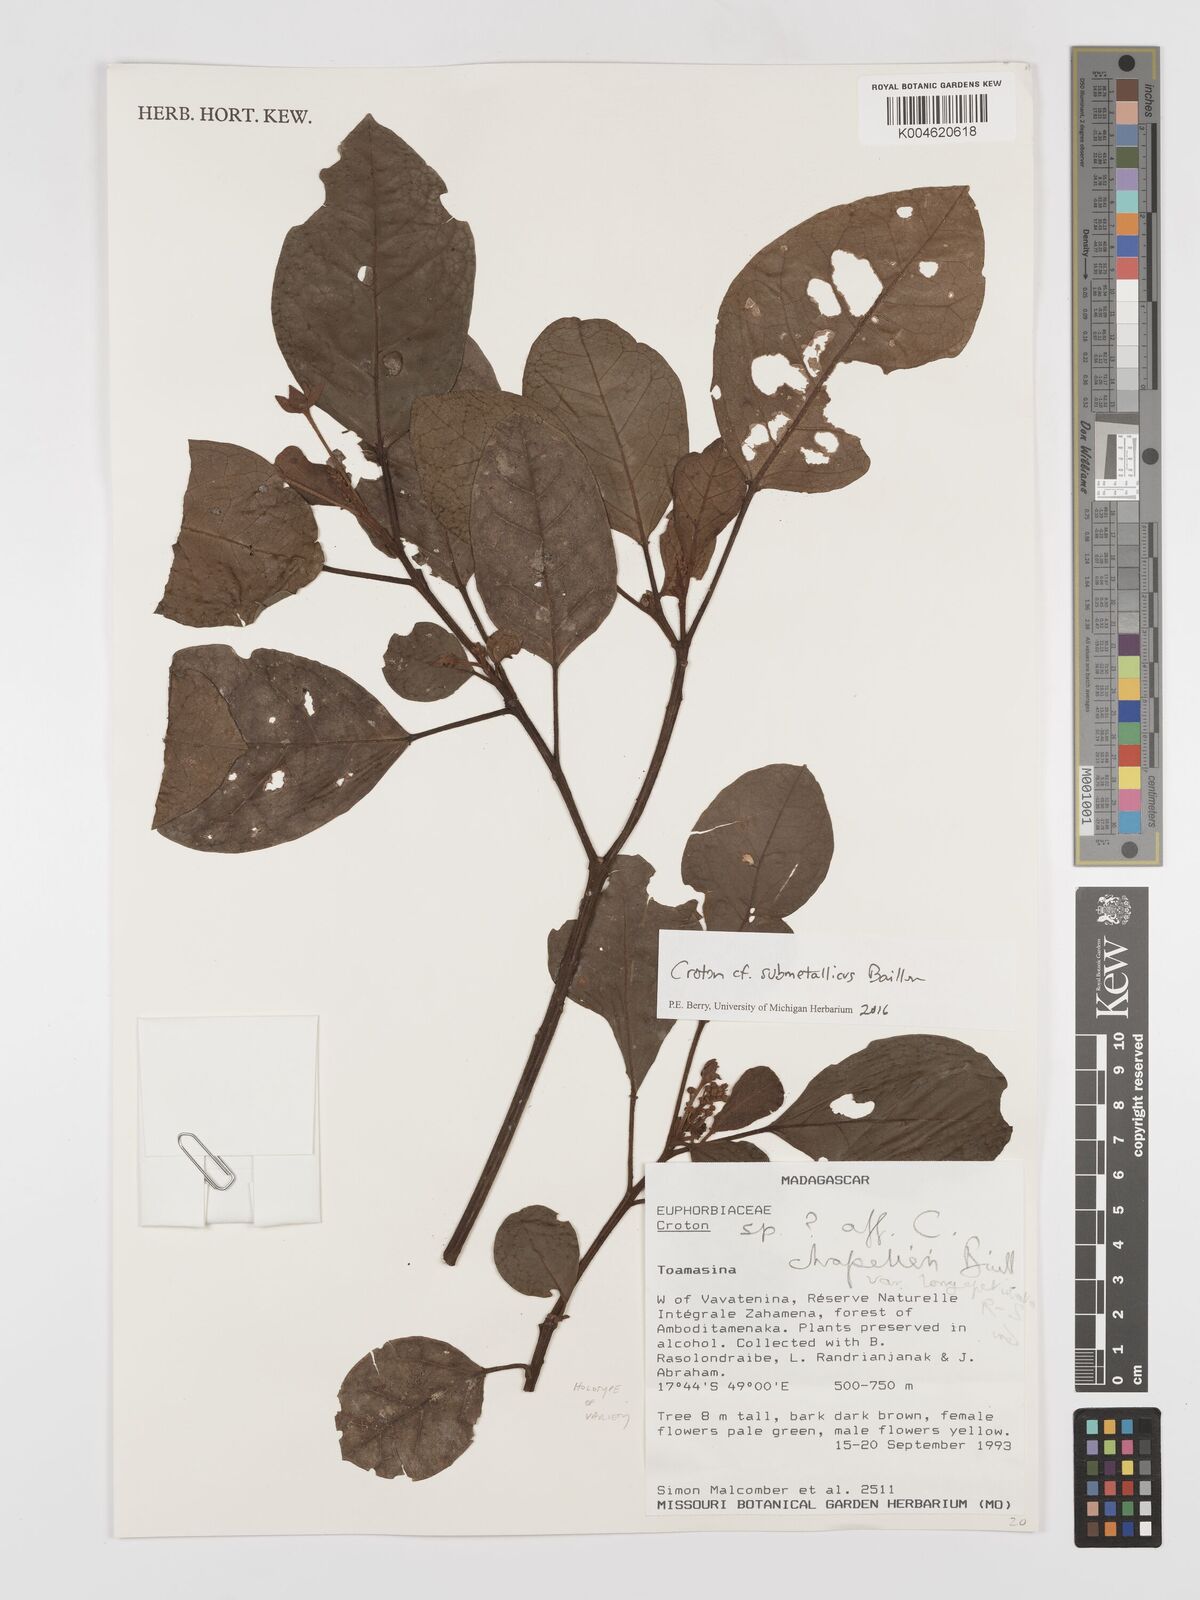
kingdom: Plantae
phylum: Tracheophyta
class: Magnoliopsida
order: Malpighiales
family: Euphorbiaceae
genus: Croton
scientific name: Croton submetallicus
